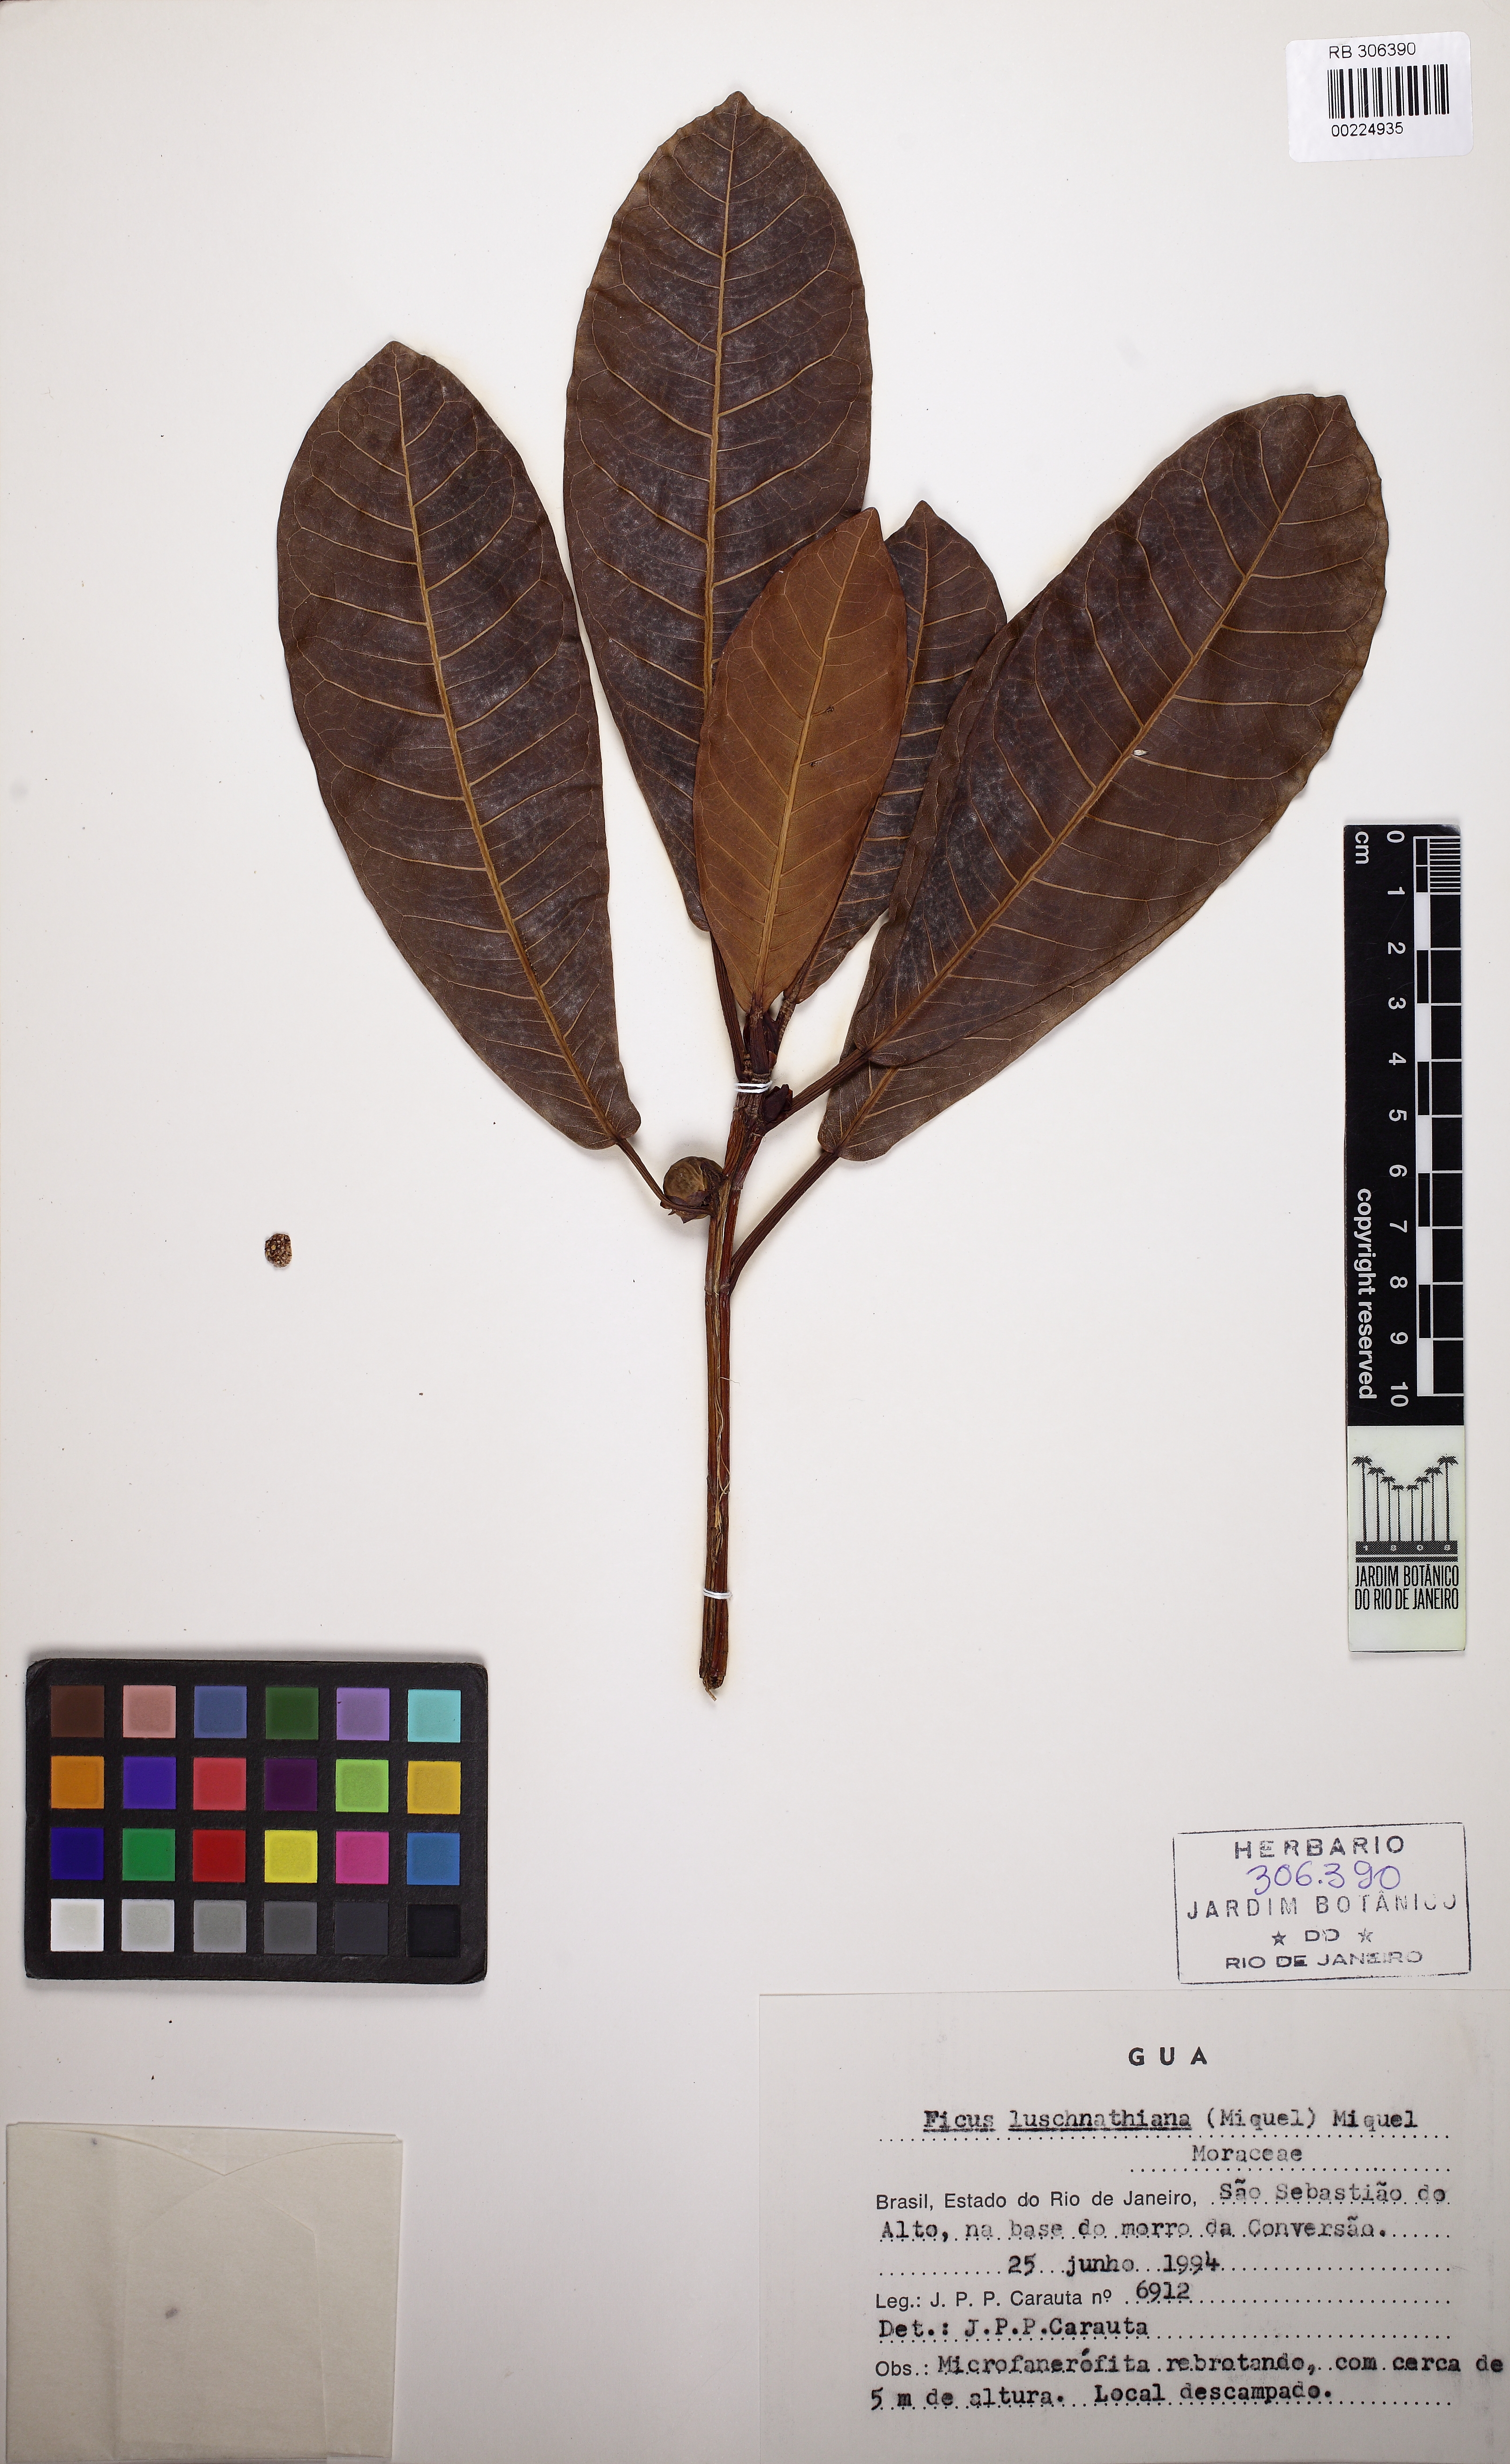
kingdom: Plantae
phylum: Tracheophyta
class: Magnoliopsida
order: Rosales
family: Moraceae
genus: Ficus
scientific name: Ficus luschnathiana
